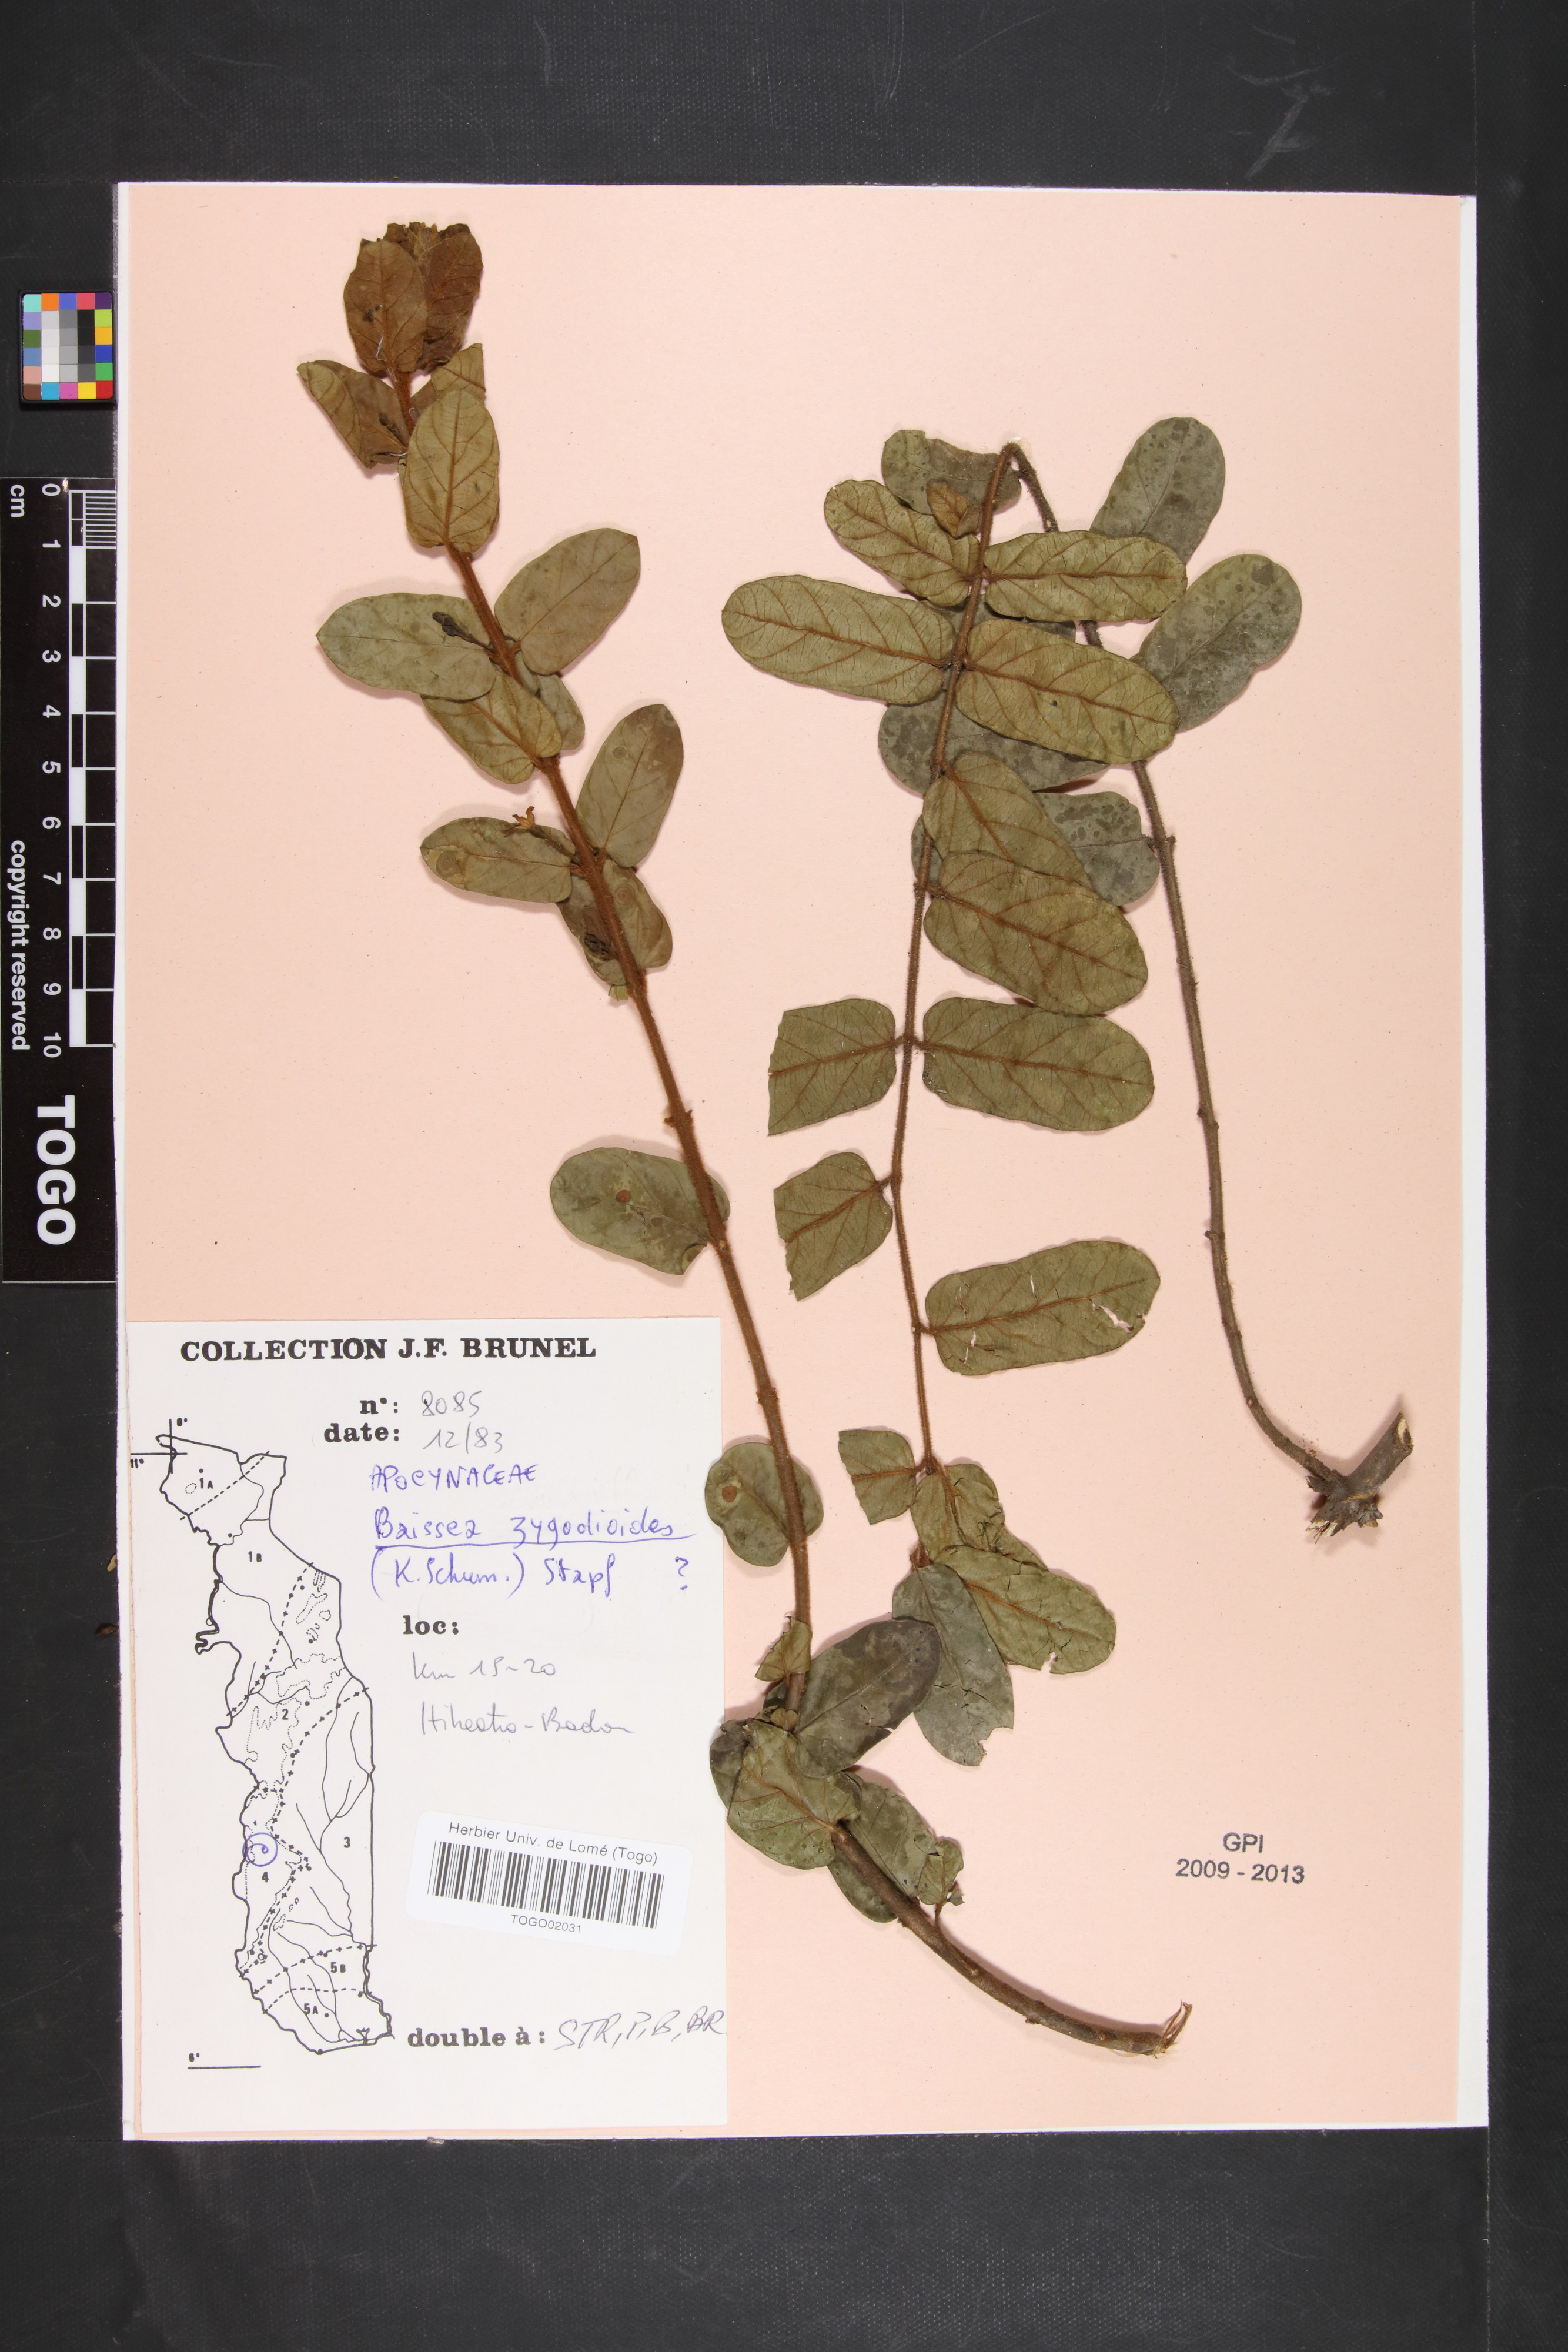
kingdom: Plantae
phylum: Tracheophyta
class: Magnoliopsida
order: Gentianales
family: Apocynaceae
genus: Baissea
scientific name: Baissea zygodioides
